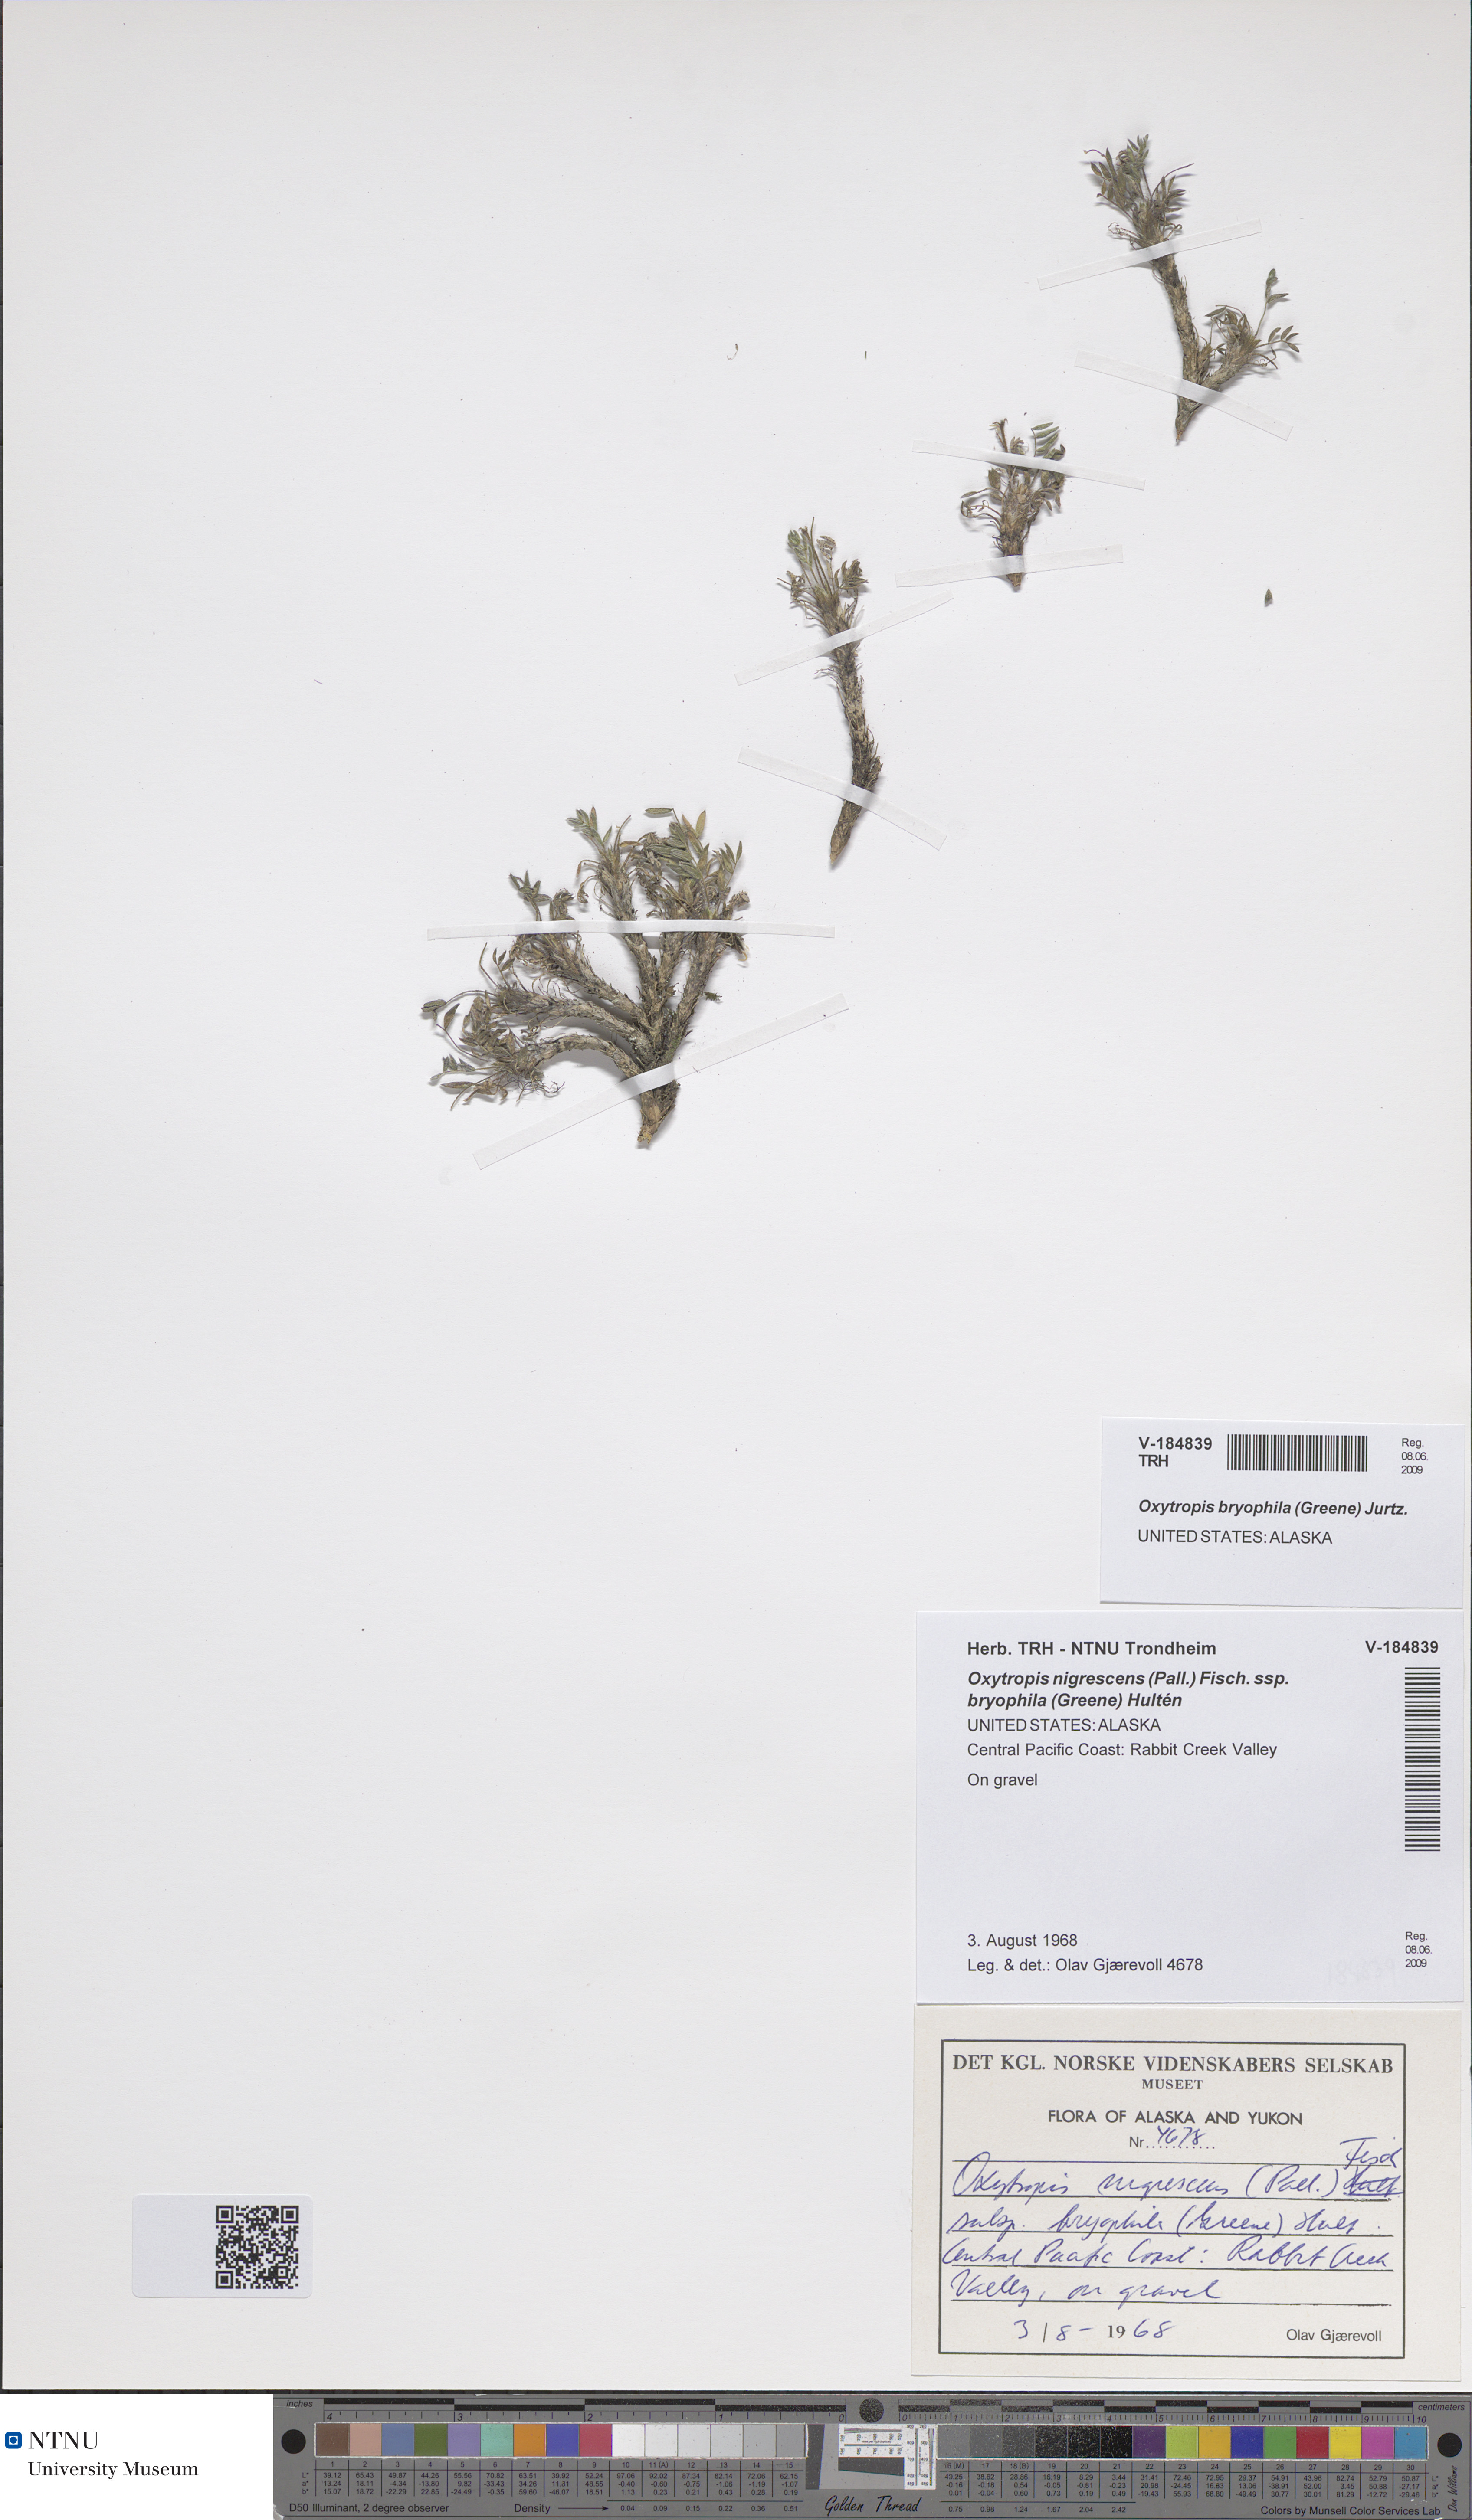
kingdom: Plantae
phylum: Tracheophyta
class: Magnoliopsida
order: Fabales
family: Fabaceae
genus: Oxytropis
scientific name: Oxytropis bryophila
